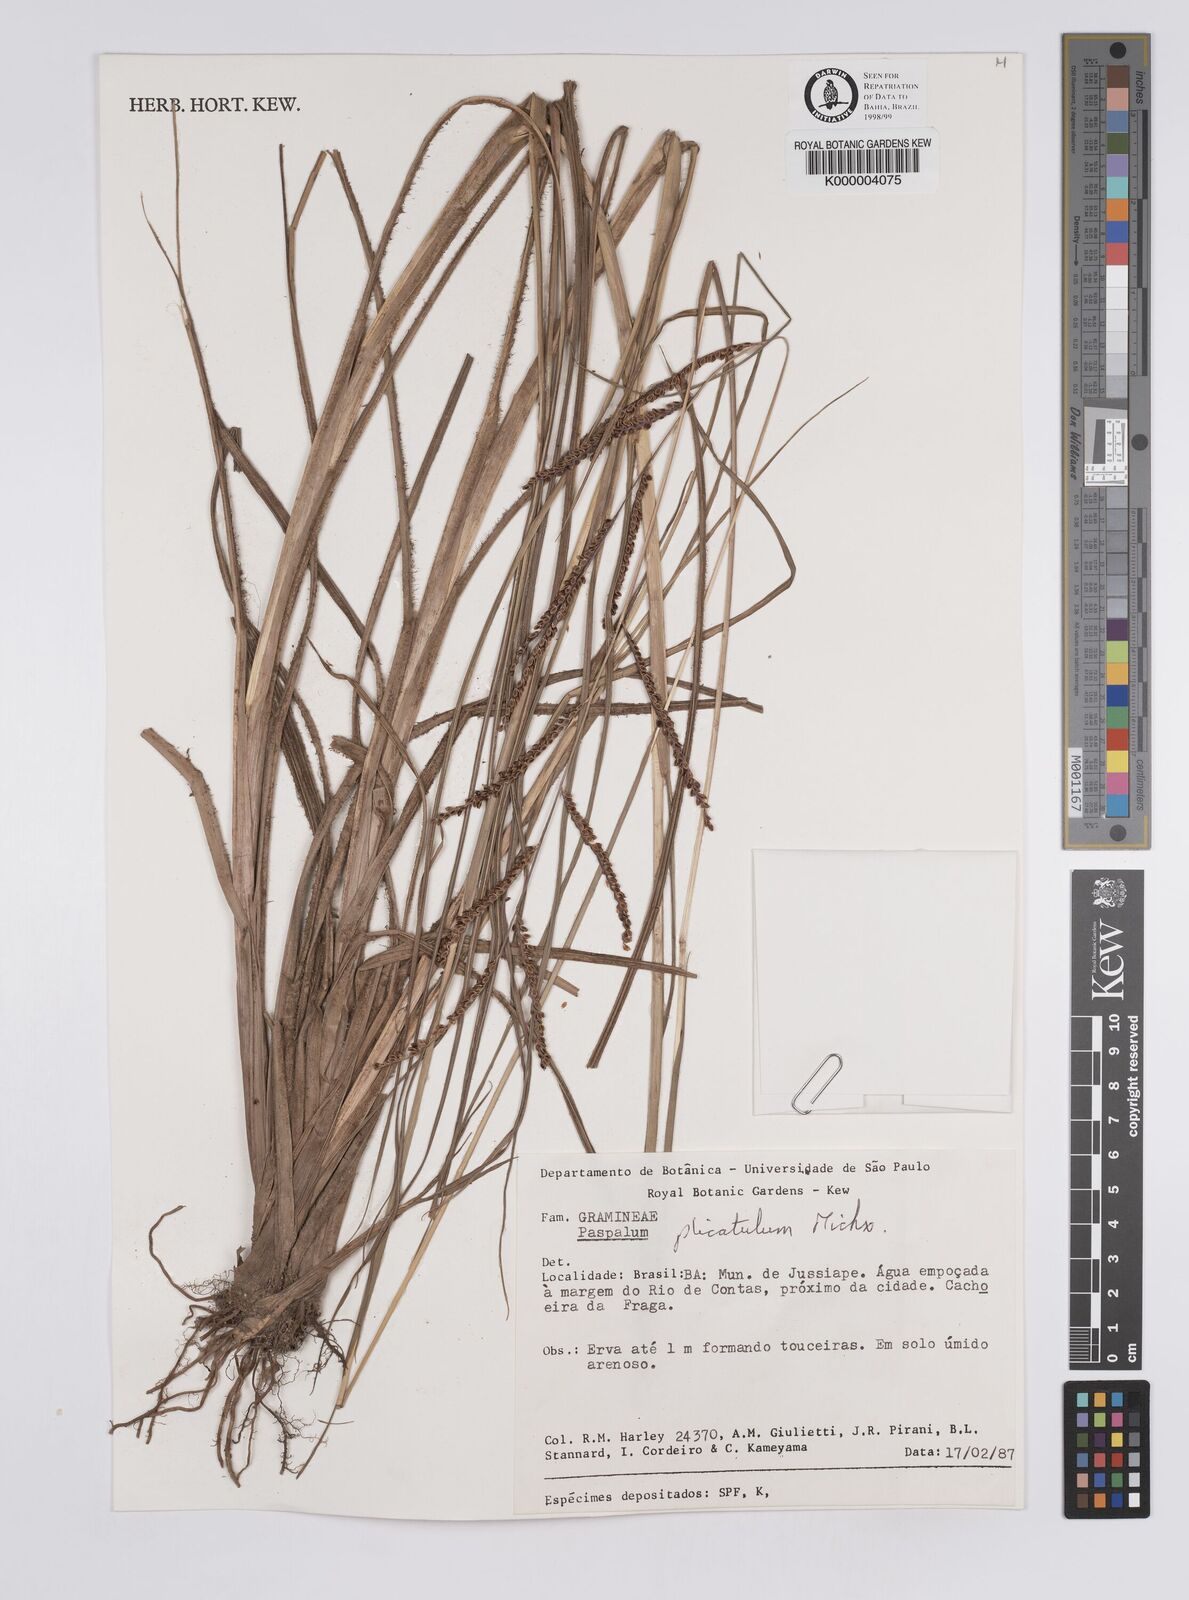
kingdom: Plantae
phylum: Tracheophyta
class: Liliopsida
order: Poales
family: Poaceae
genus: Paspalum
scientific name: Paspalum plicatulum
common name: Top paspalum
